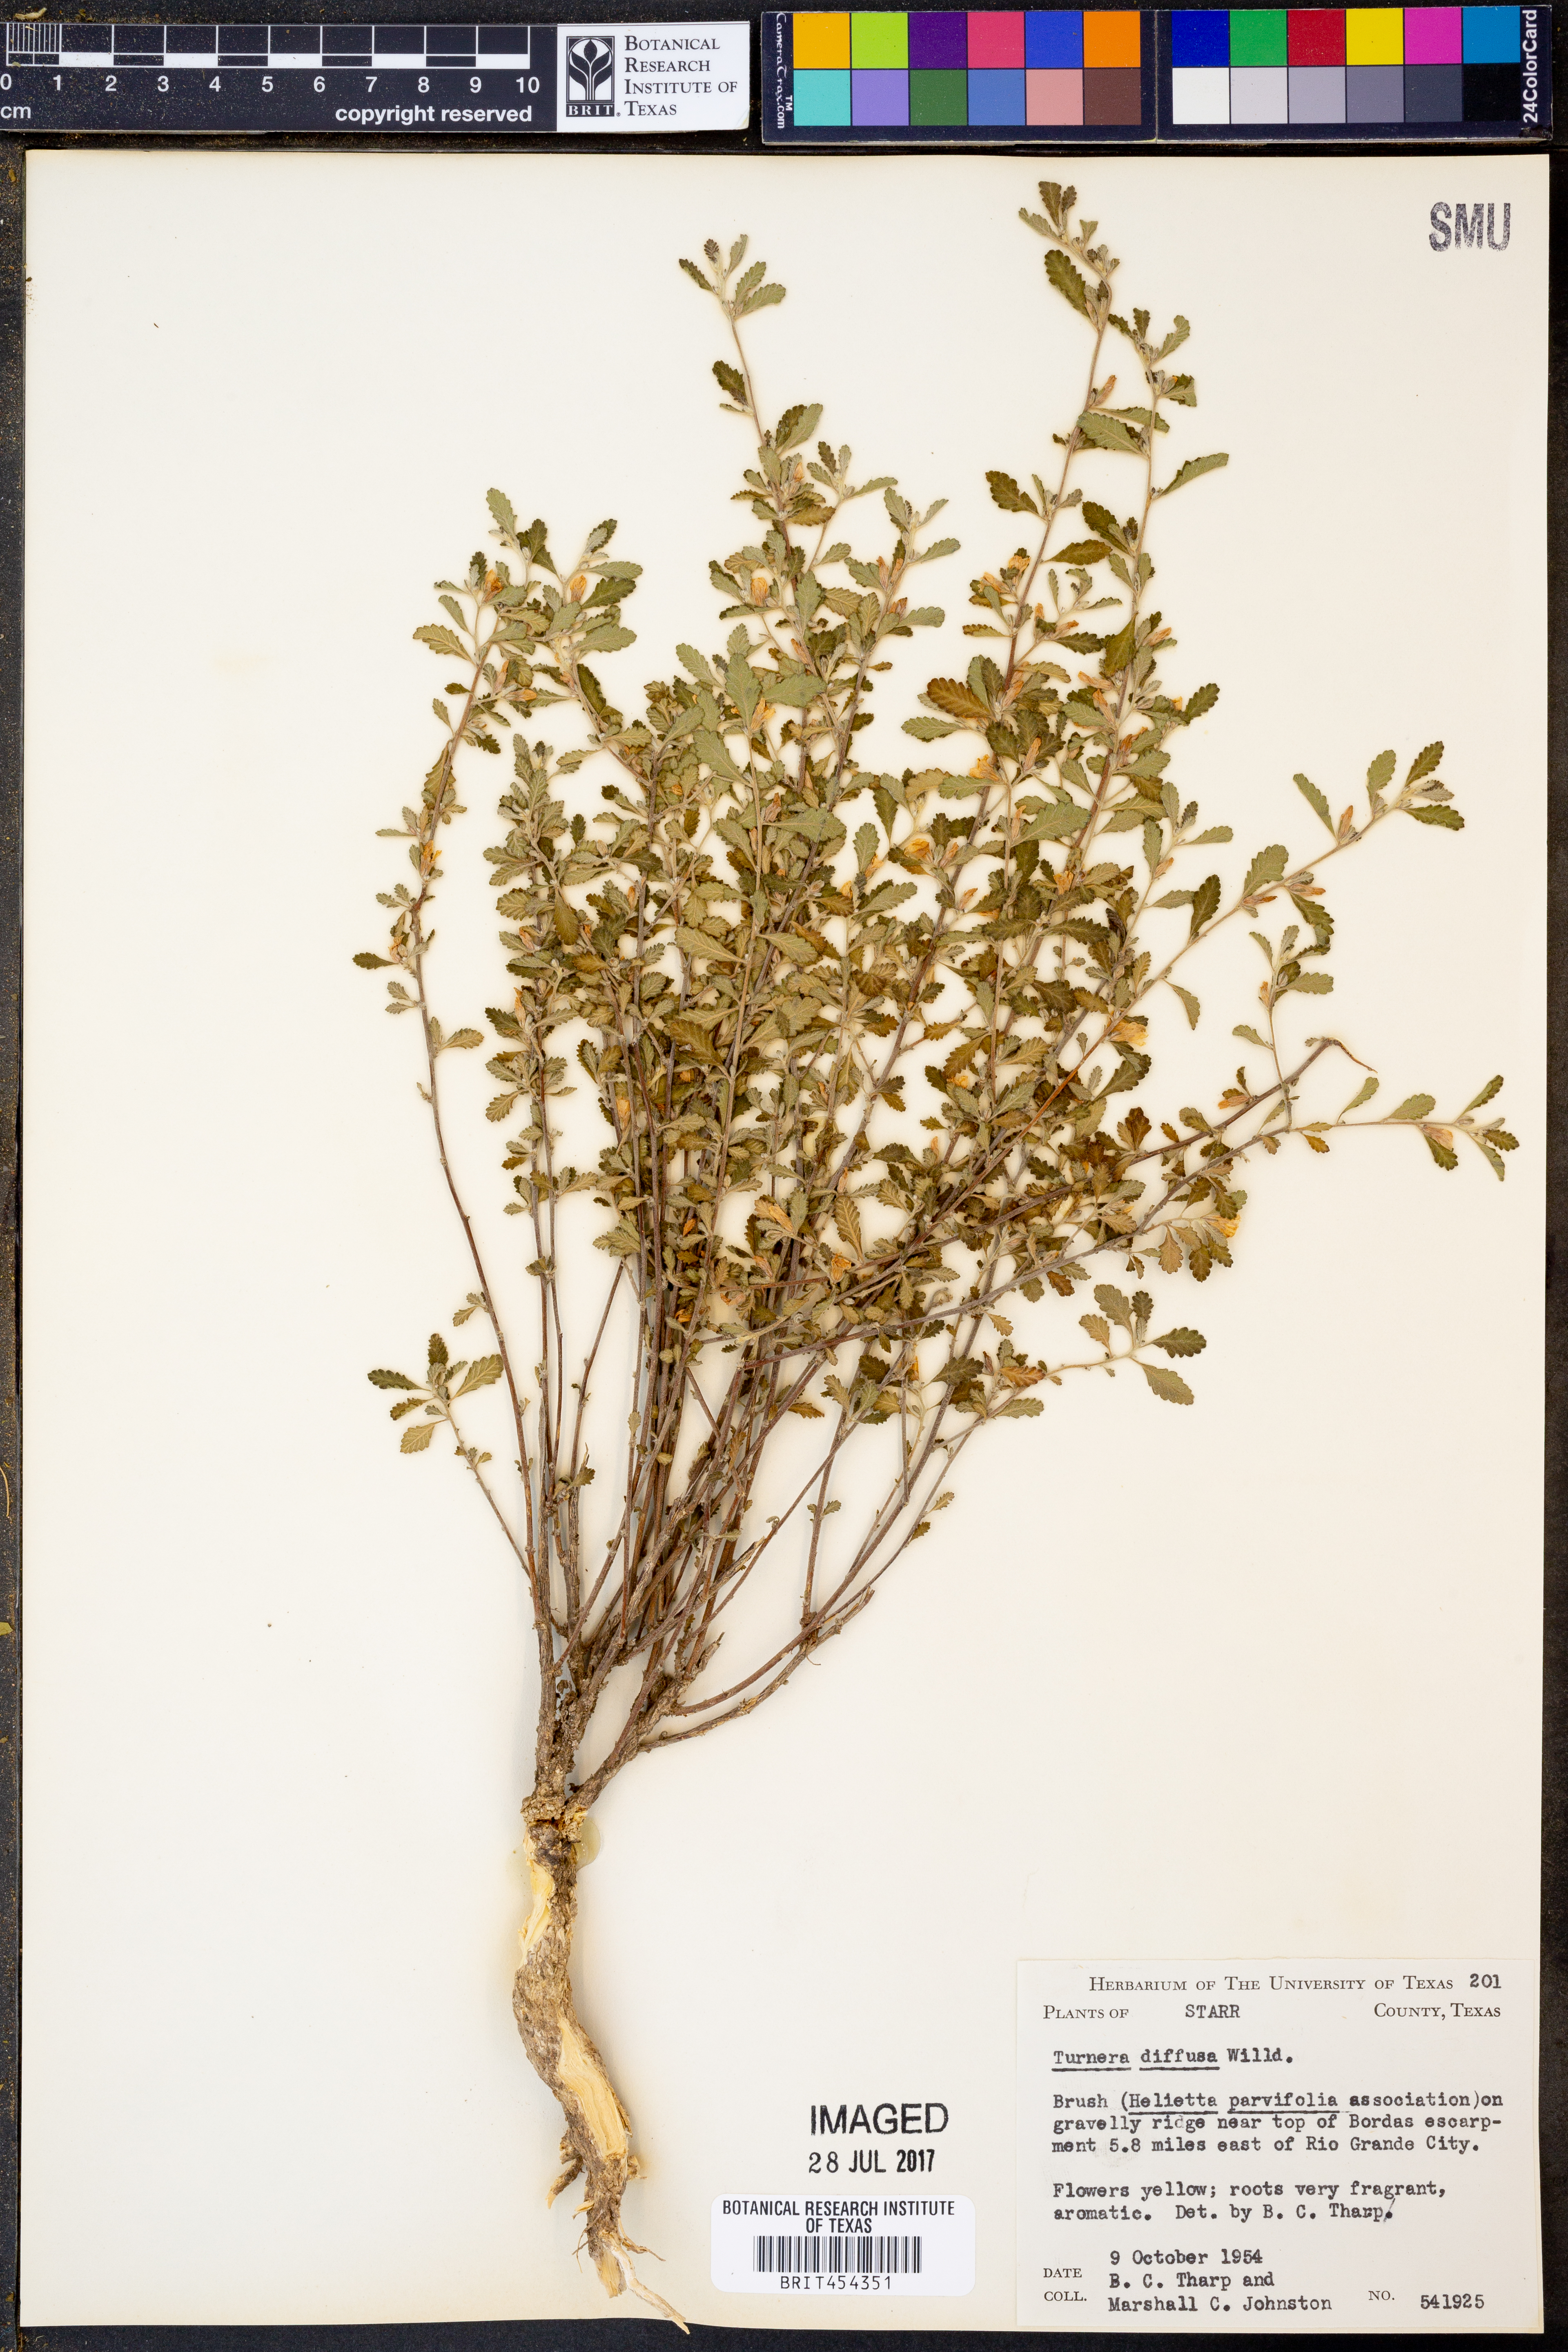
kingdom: Plantae
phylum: Tracheophyta
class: Magnoliopsida
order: Malpighiales
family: Turneraceae
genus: Turnera
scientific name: Turnera diffusa
